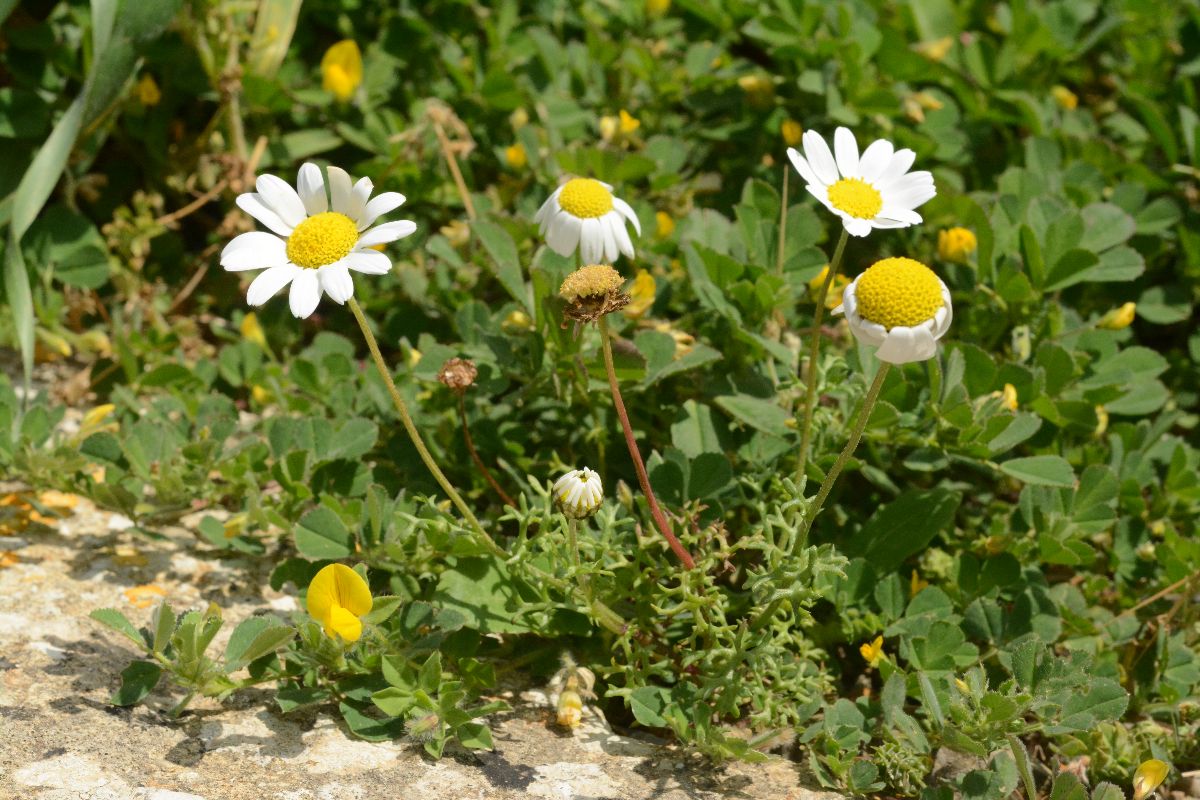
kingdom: Plantae
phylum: Tracheophyta
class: Magnoliopsida
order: Asterales
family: Asteraceae
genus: Anthemis
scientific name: Anthemis chia
